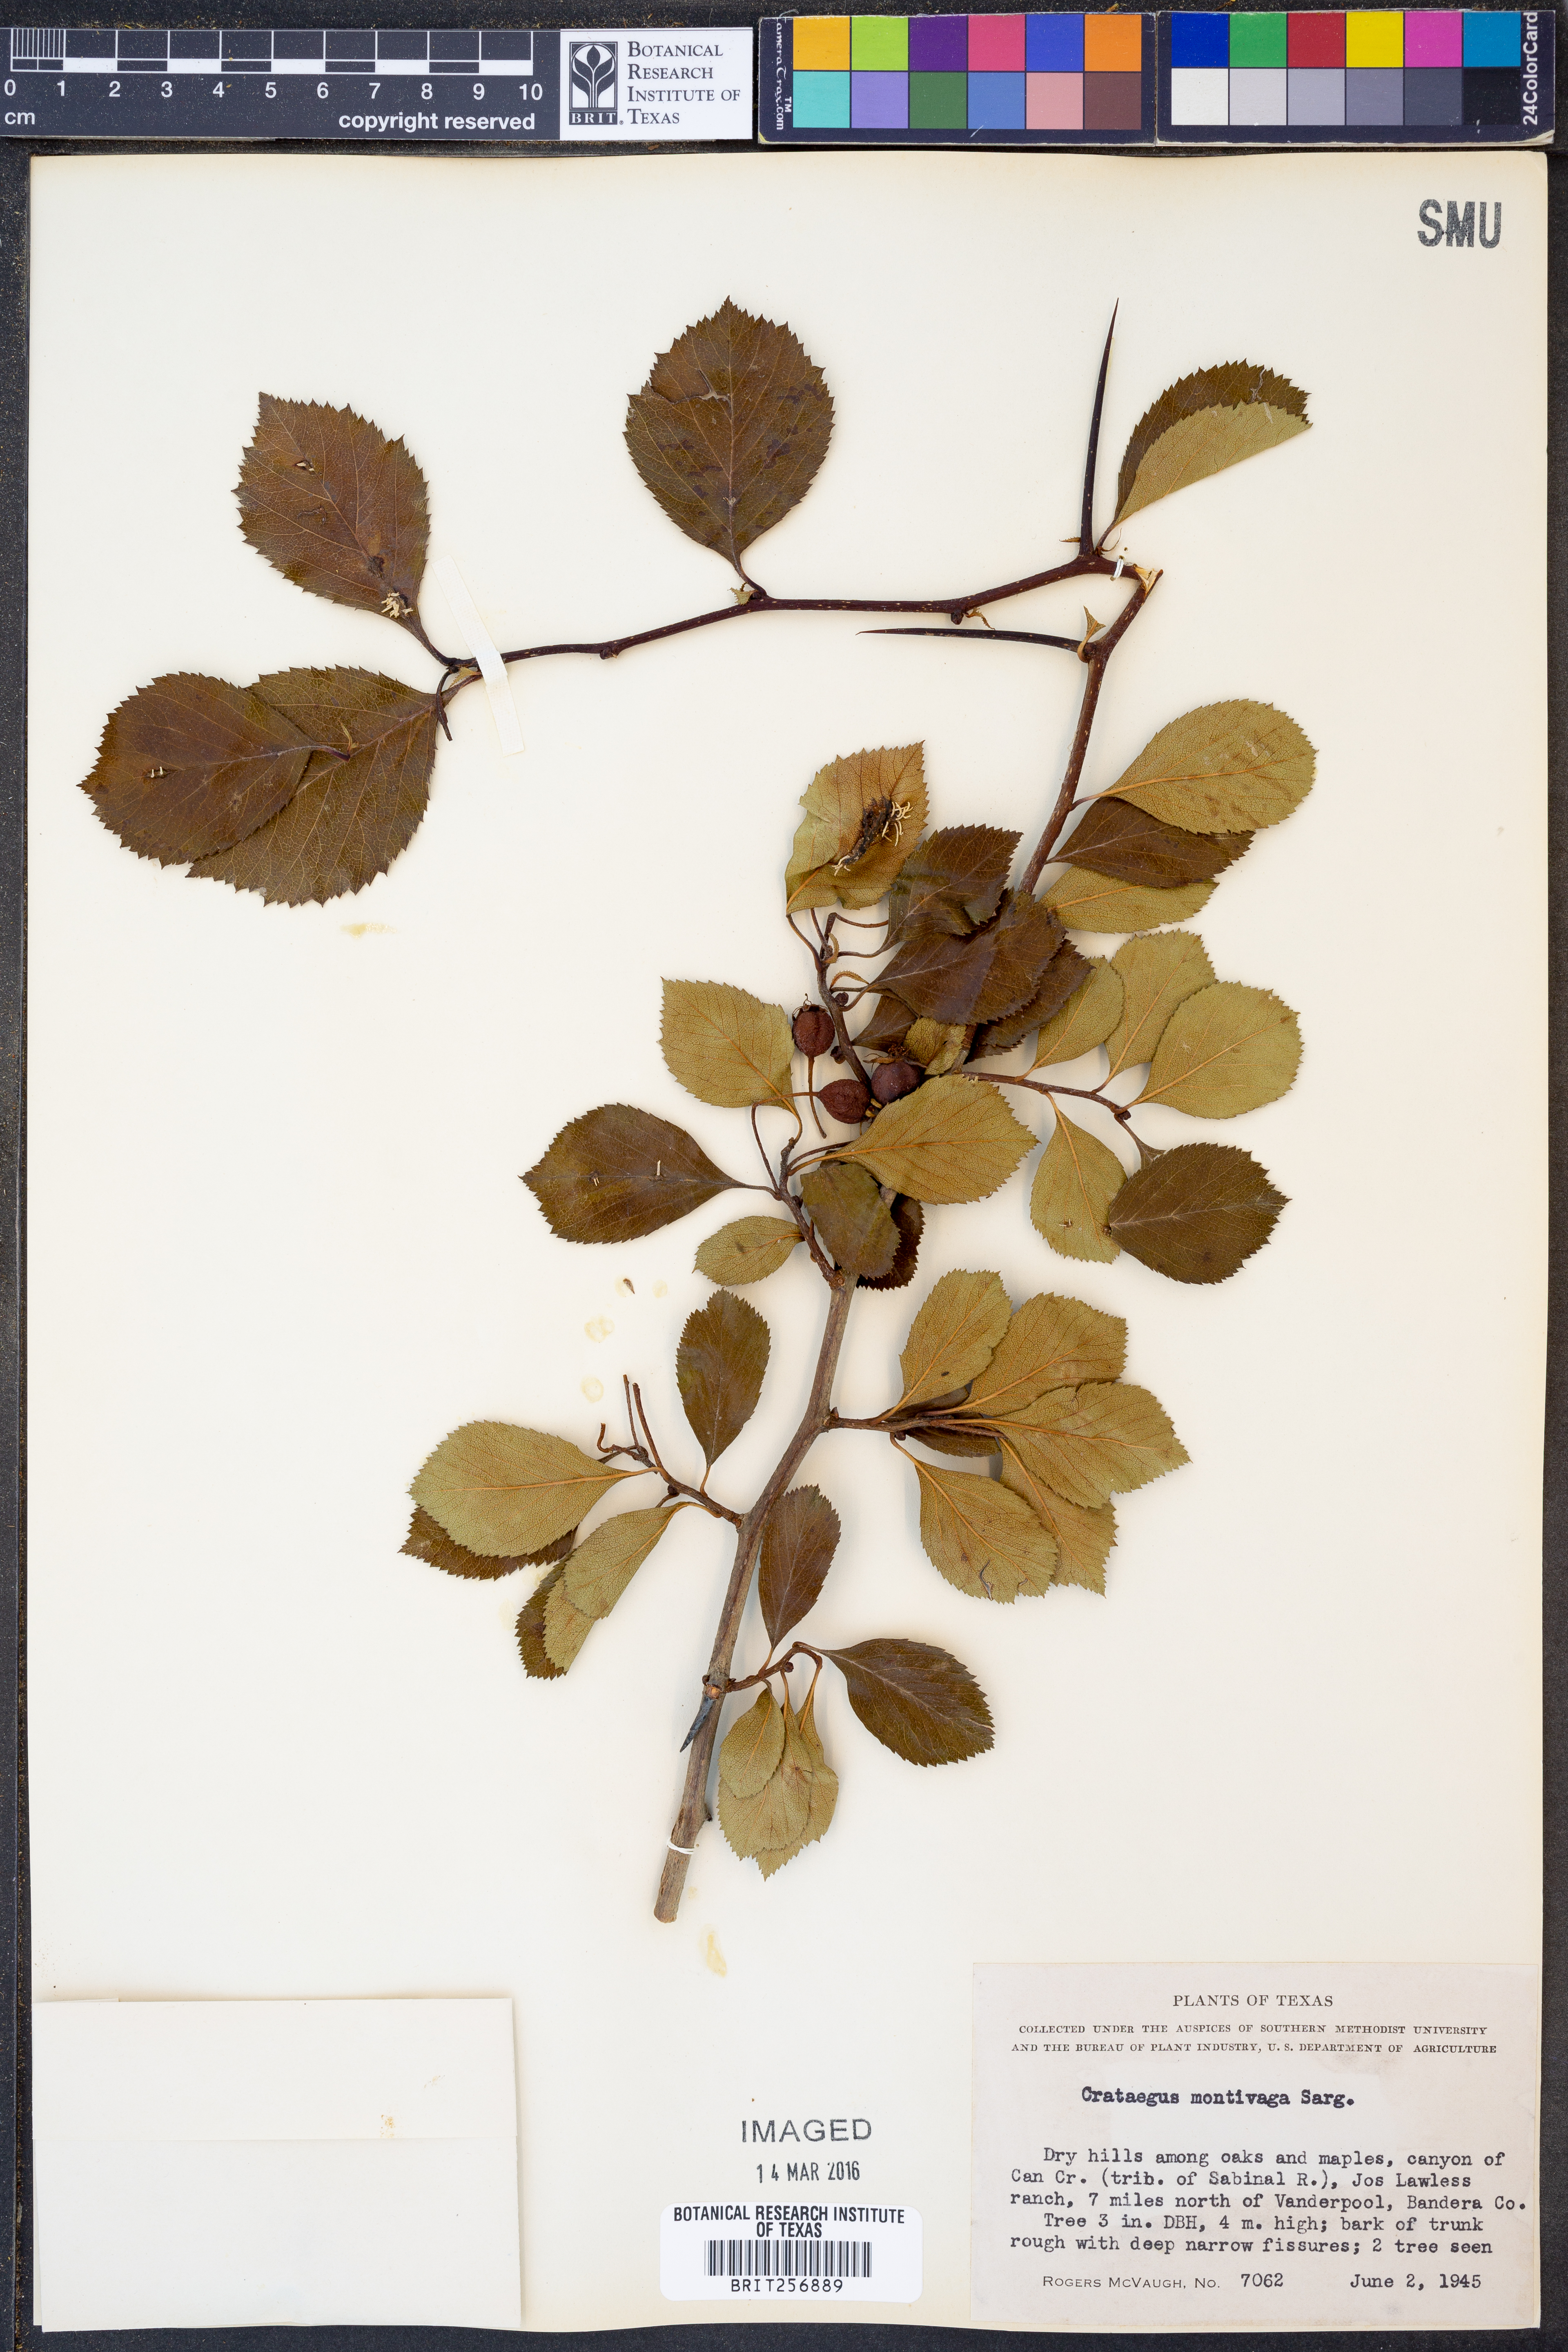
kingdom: Plantae
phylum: Tracheophyta
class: Magnoliopsida
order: Rosales
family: Rosaceae
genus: Crataegus
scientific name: Crataegus tracyi
